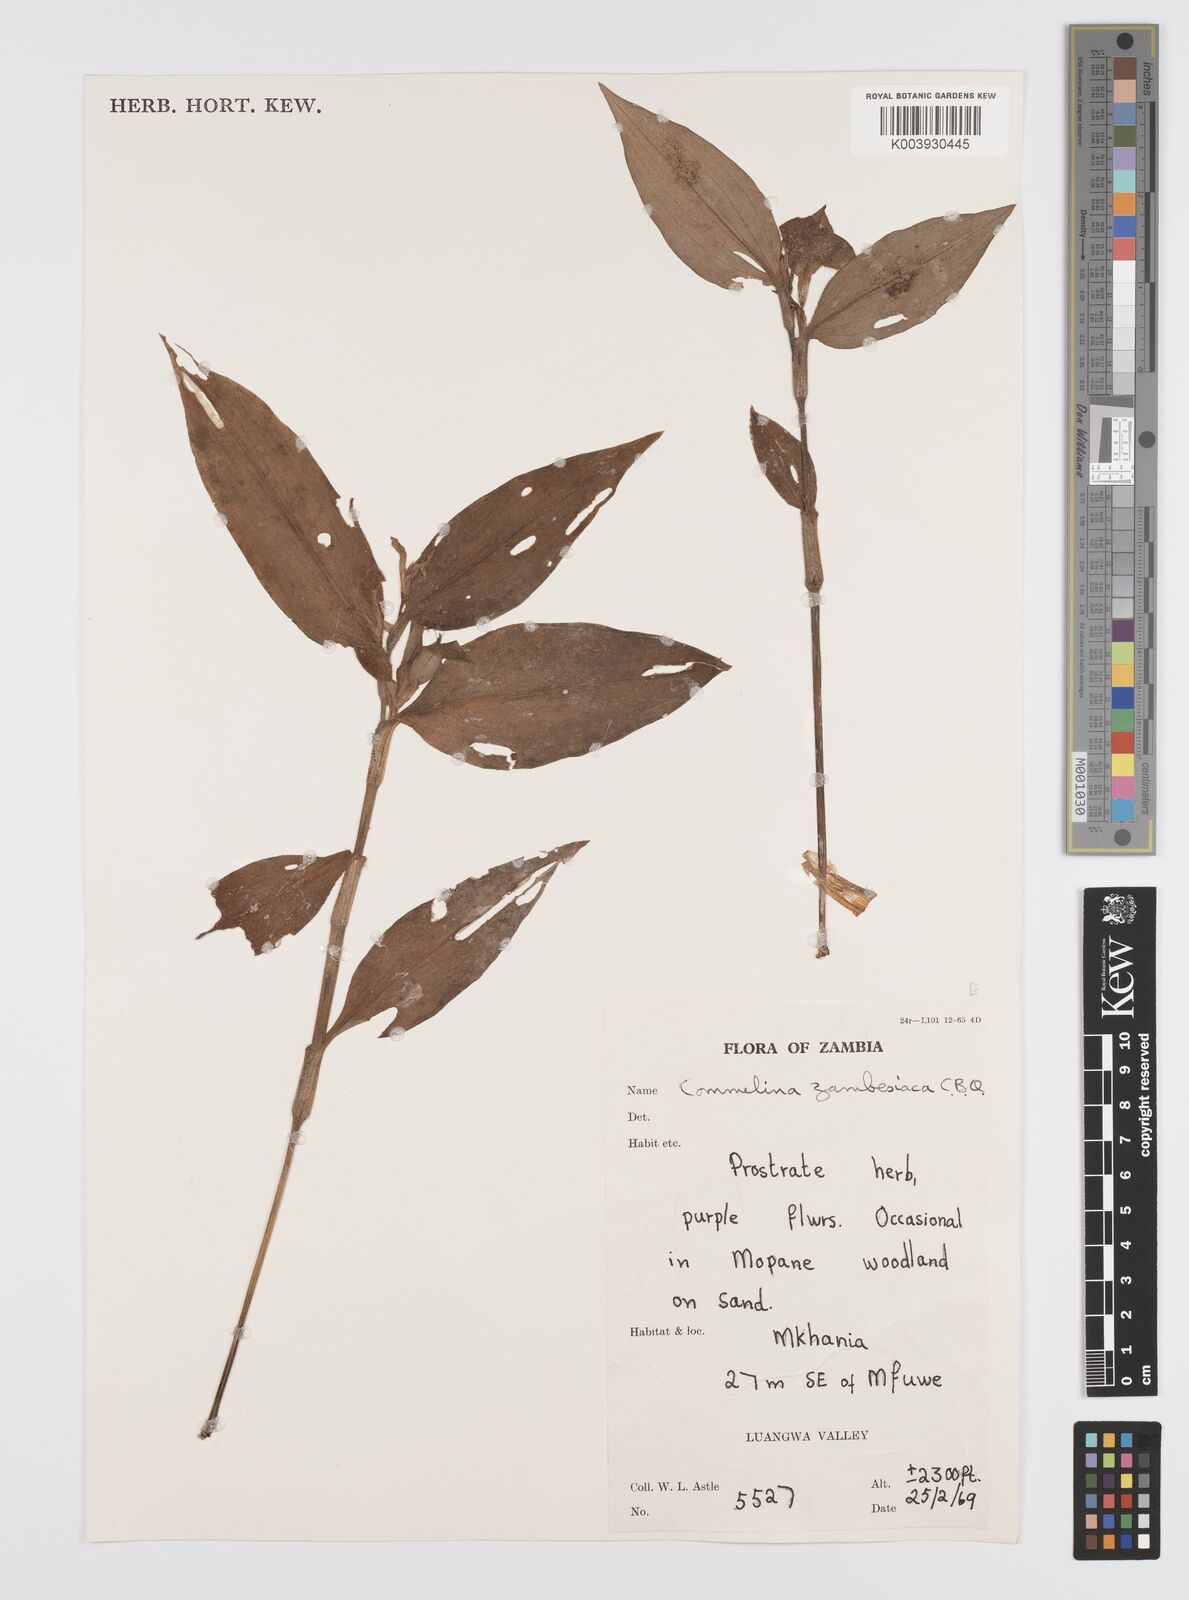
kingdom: Plantae
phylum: Tracheophyta
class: Liliopsida
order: Commelinales
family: Commelinaceae
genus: Commelina
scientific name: Commelina zambesica
